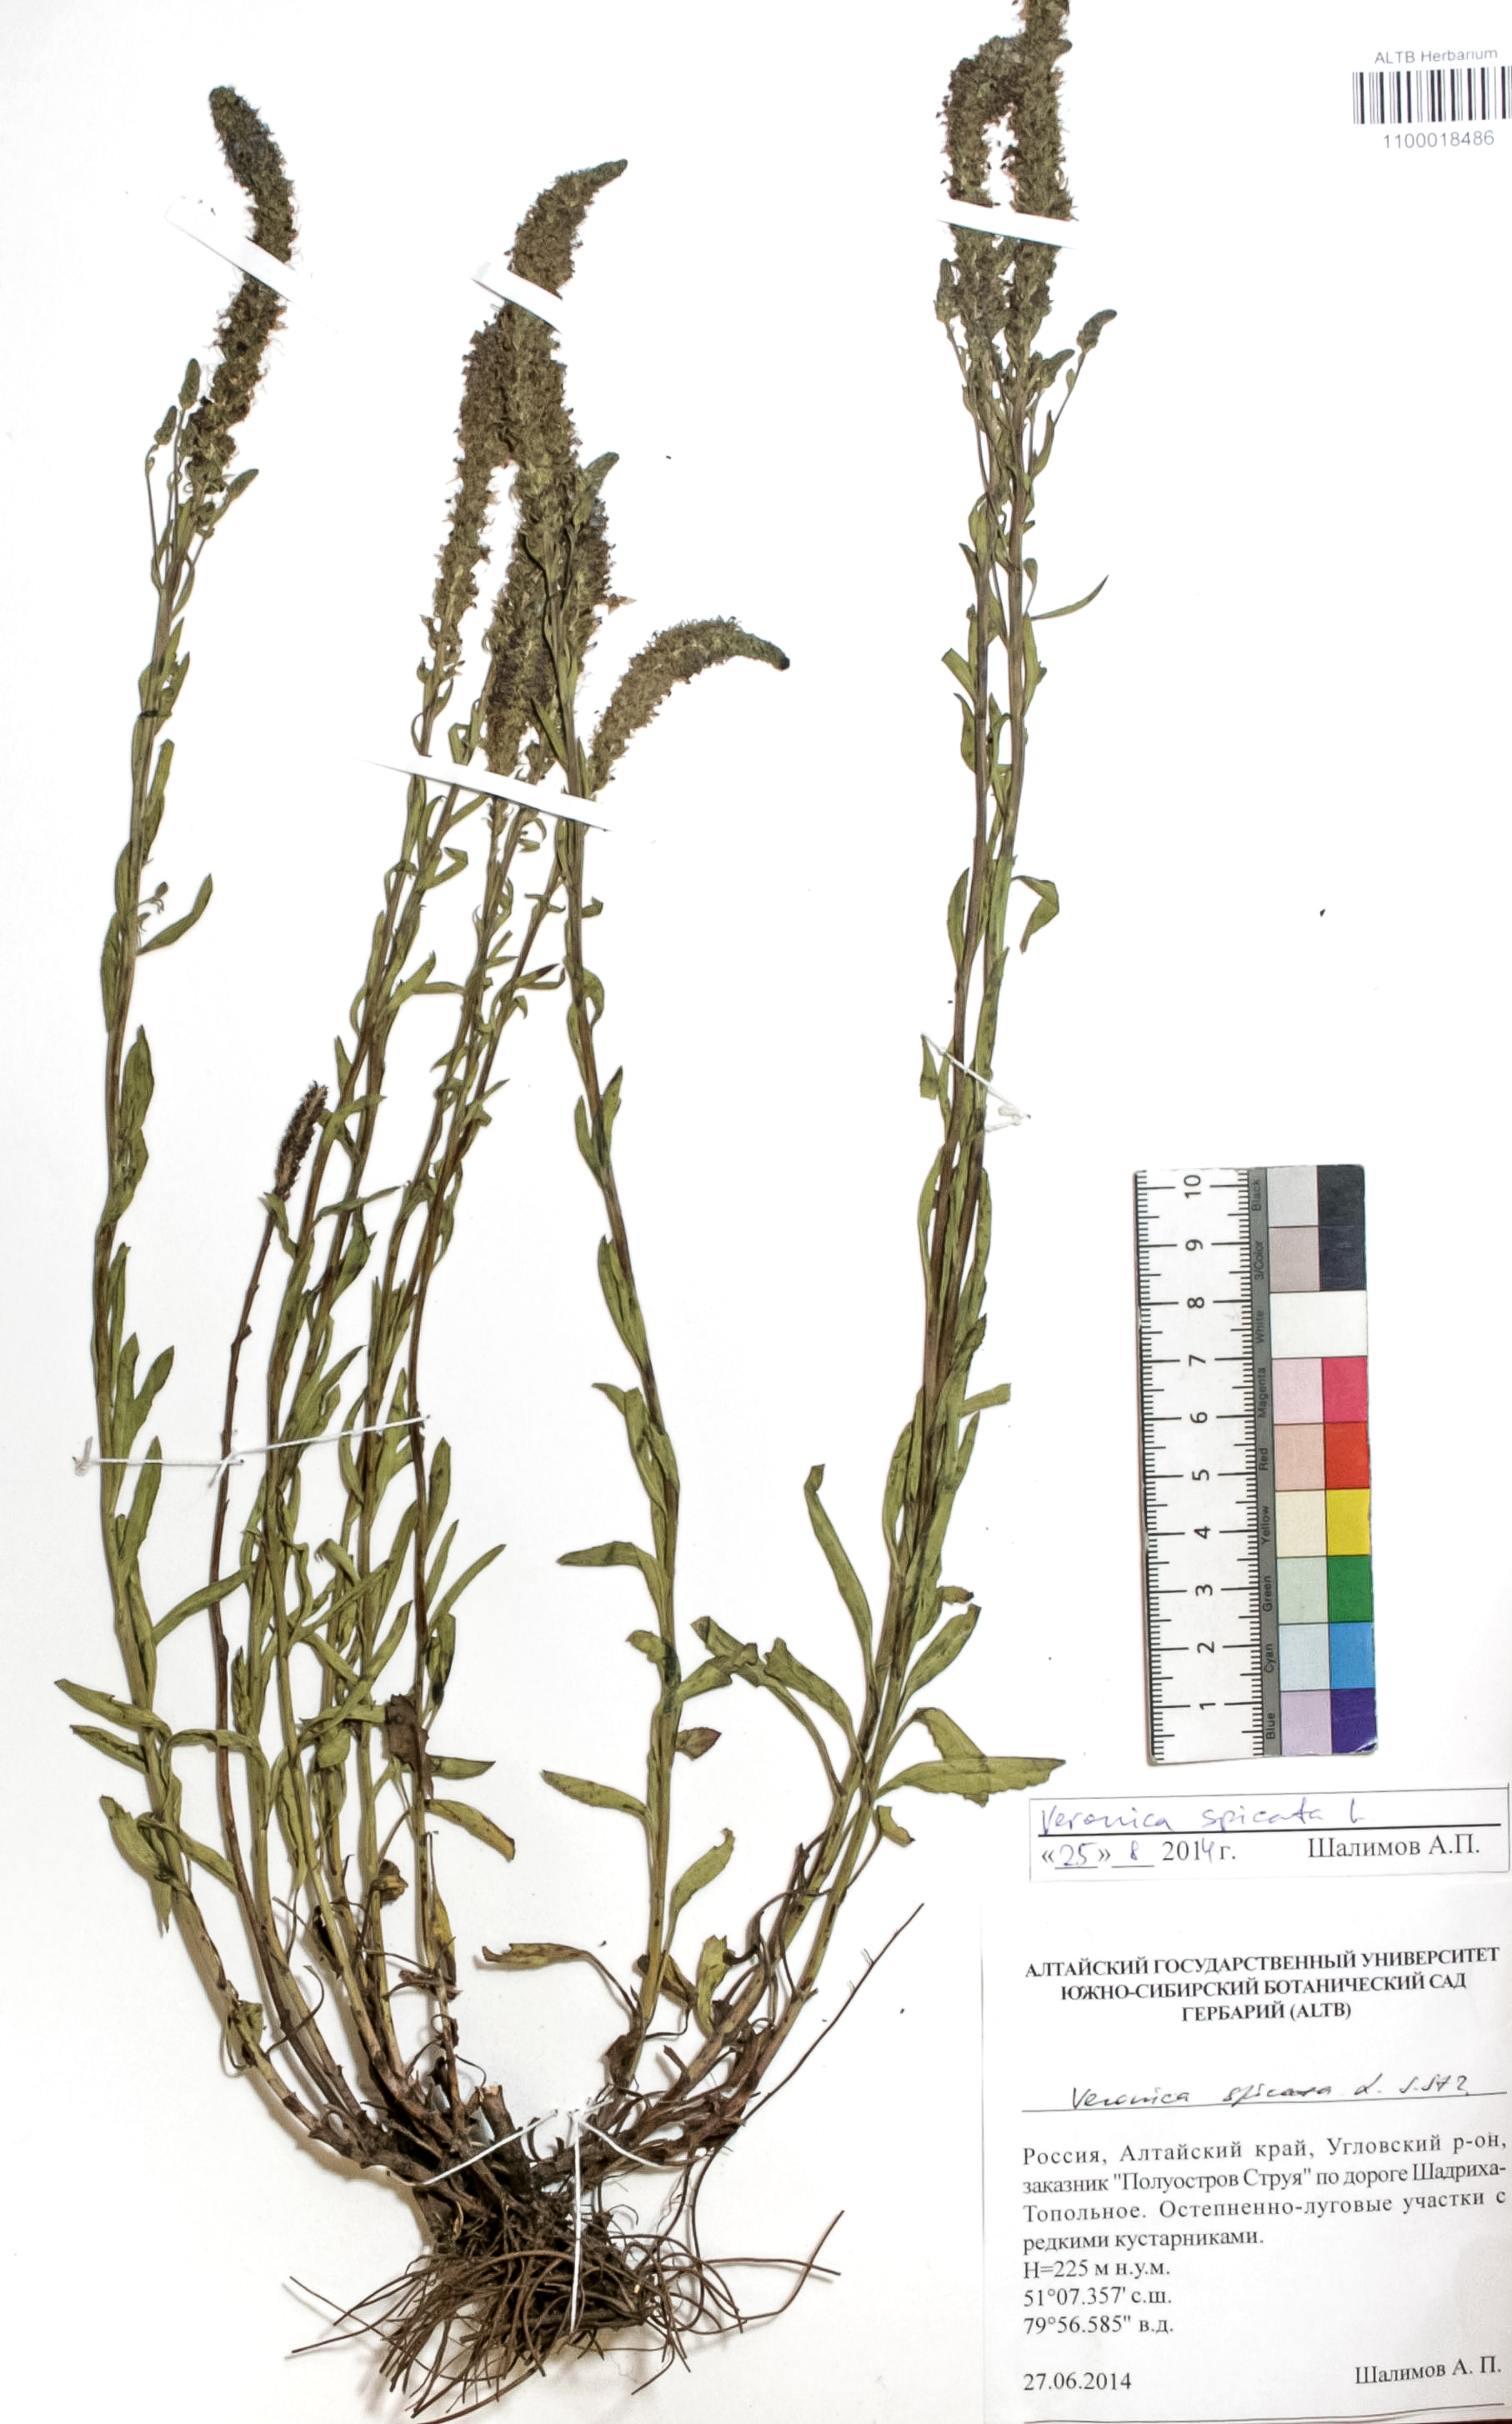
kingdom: Plantae
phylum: Tracheophyta
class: Magnoliopsida
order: Lamiales
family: Plantaginaceae
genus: Veronica
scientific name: Veronica spicata
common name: Spiked speedwell
